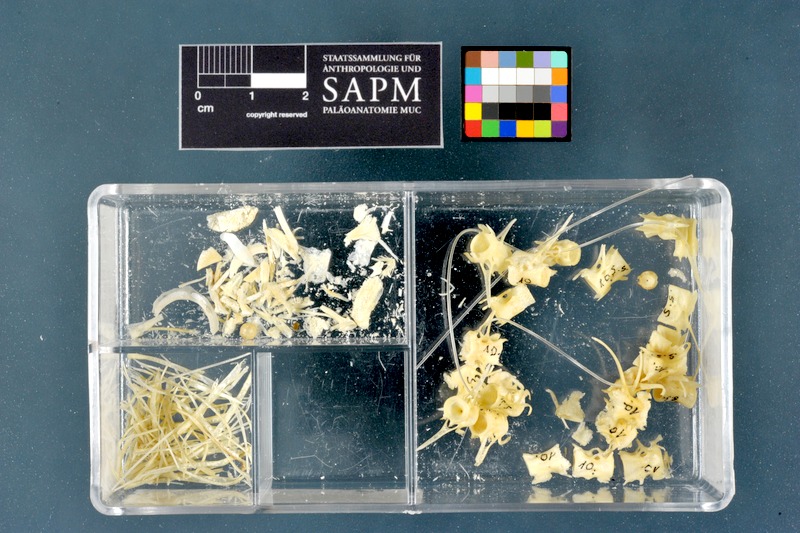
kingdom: Animalia
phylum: Chordata
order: Perciformes
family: Scombridae
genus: Scomber
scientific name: Scomber scombrus
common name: Mackerel
